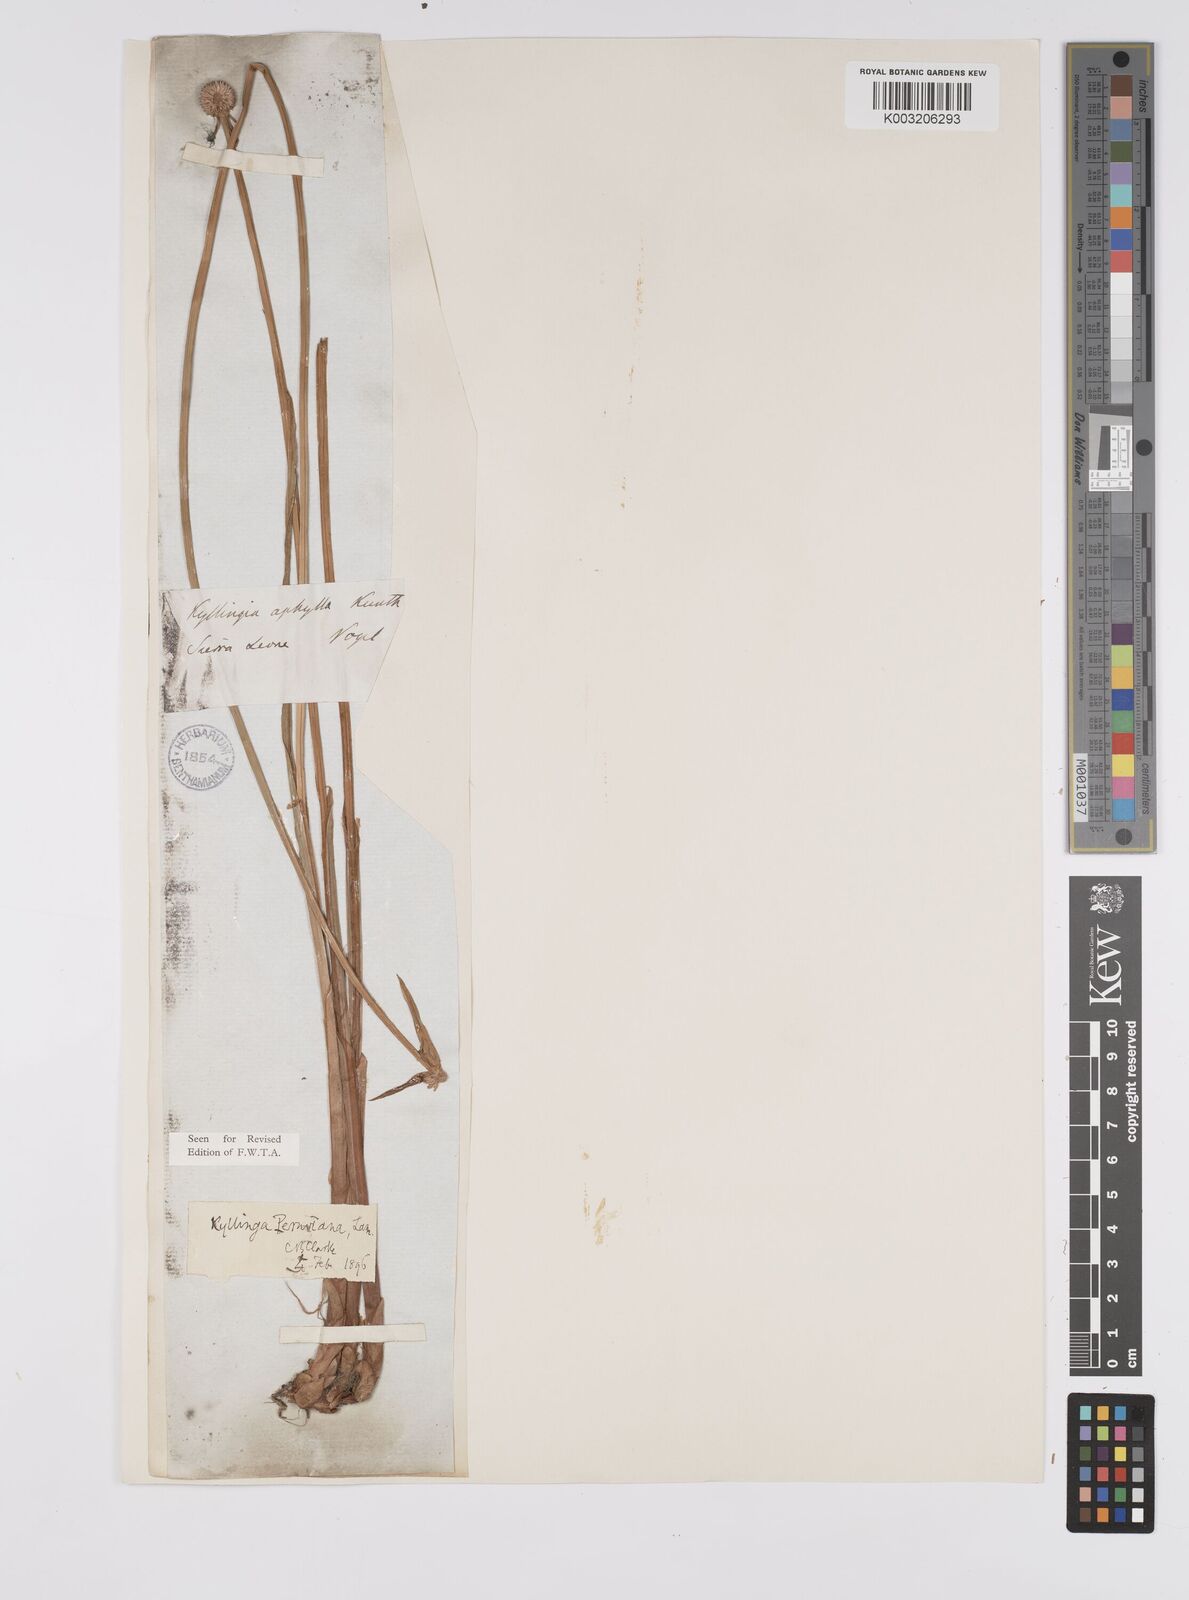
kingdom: Plantae
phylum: Tracheophyta
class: Liliopsida
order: Poales
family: Cyperaceae
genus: Cyperus
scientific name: Cyperus obtusatus
